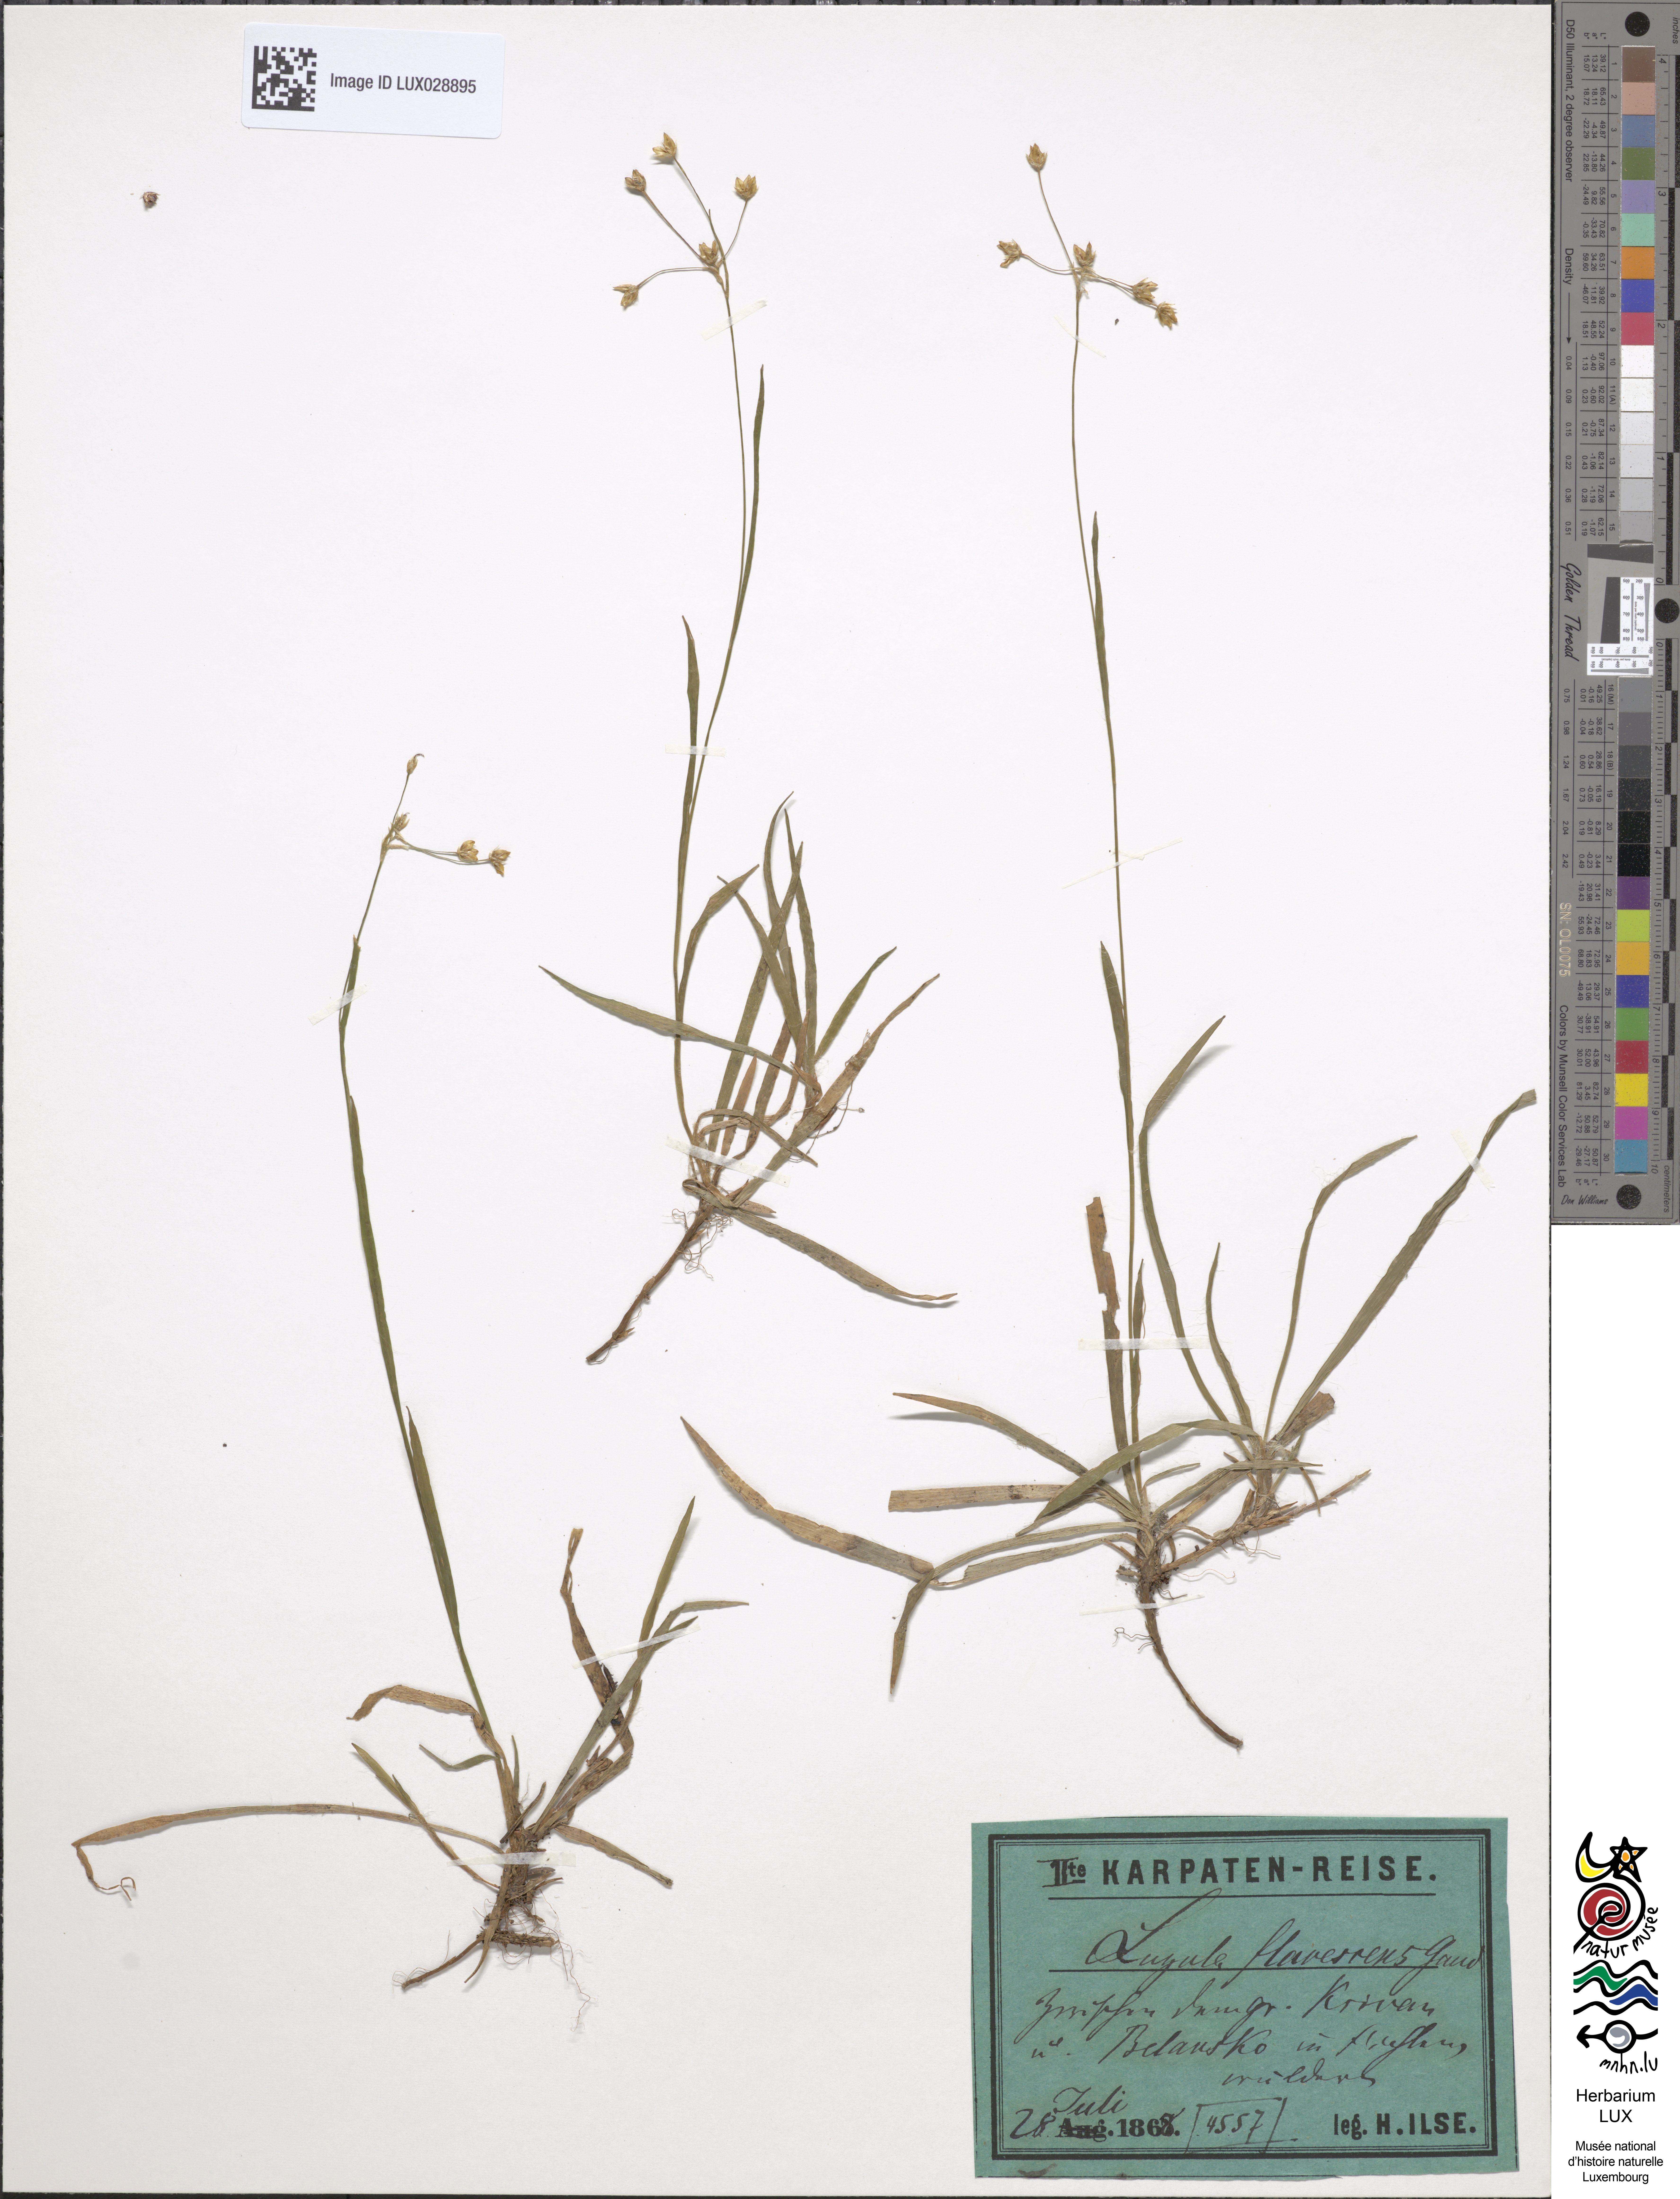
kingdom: Plantae
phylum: Tracheophyta
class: Liliopsida
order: Poales
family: Juncaceae
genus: Luzula
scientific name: Luzula luzulina
